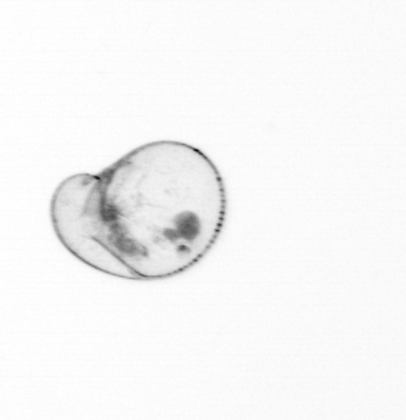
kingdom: Chromista
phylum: Myzozoa
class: Dinophyceae
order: Noctilucales
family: Noctilucaceae
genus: Noctiluca
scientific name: Noctiluca scintillans
